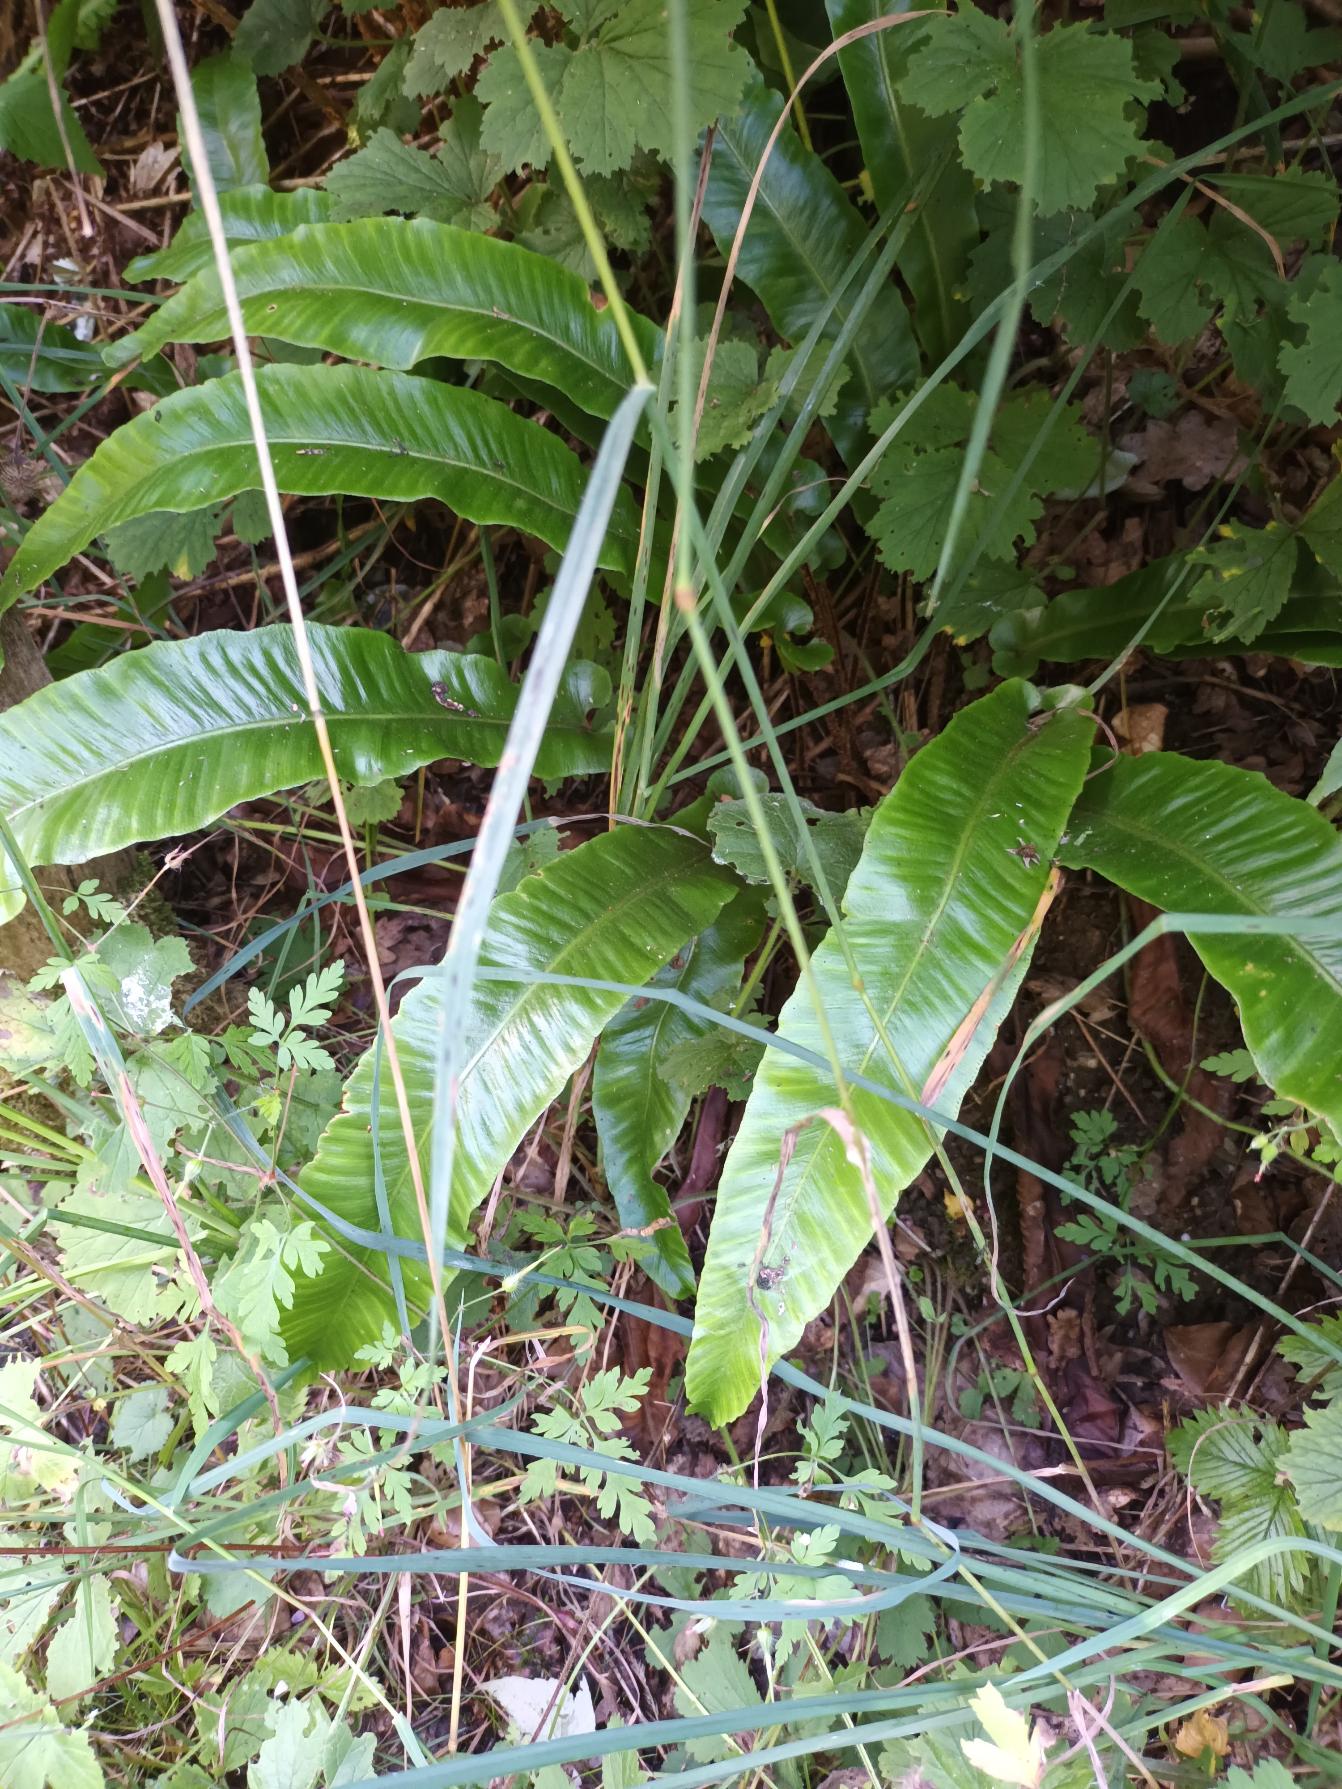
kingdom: Plantae
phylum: Tracheophyta
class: Polypodiopsida
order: Polypodiales
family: Aspleniaceae
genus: Asplenium
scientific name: Asplenium scolopendrium
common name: Hjortetunge
